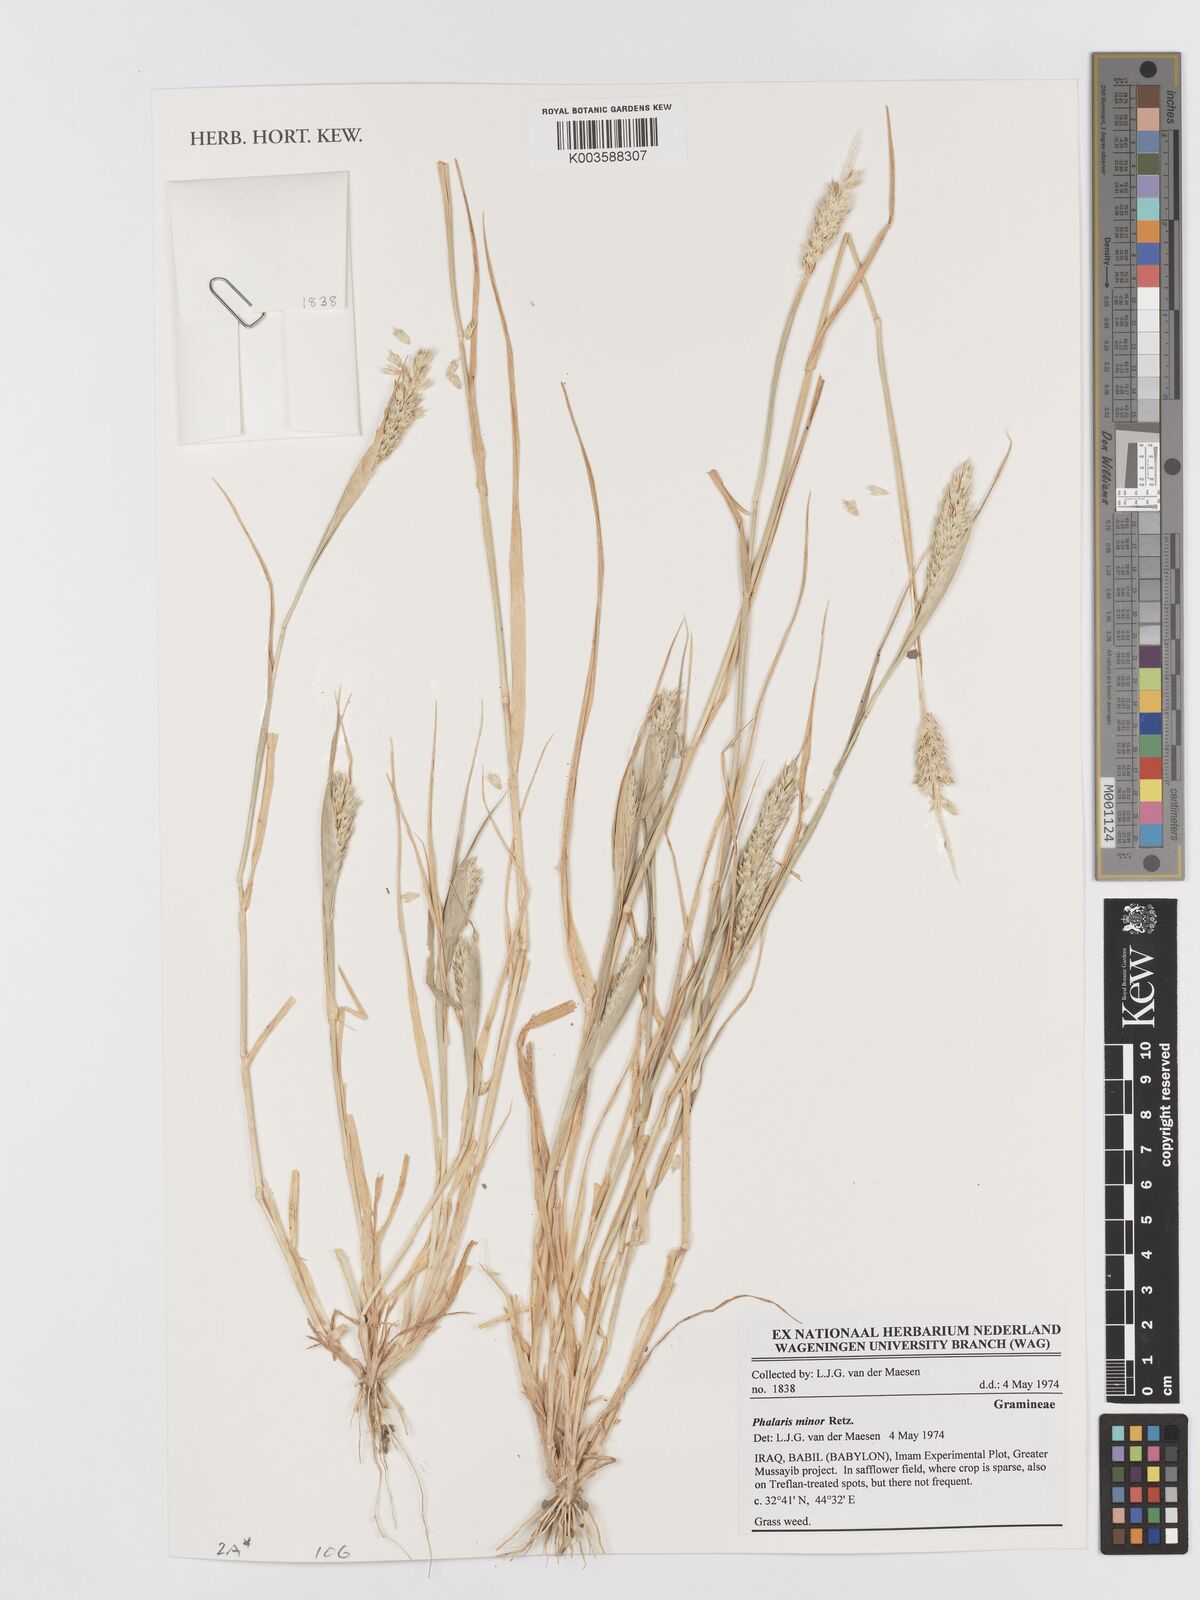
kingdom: Plantae
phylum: Tracheophyta
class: Liliopsida
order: Poales
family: Poaceae
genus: Phalaris
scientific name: Phalaris minor
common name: Littleseed canarygrass
